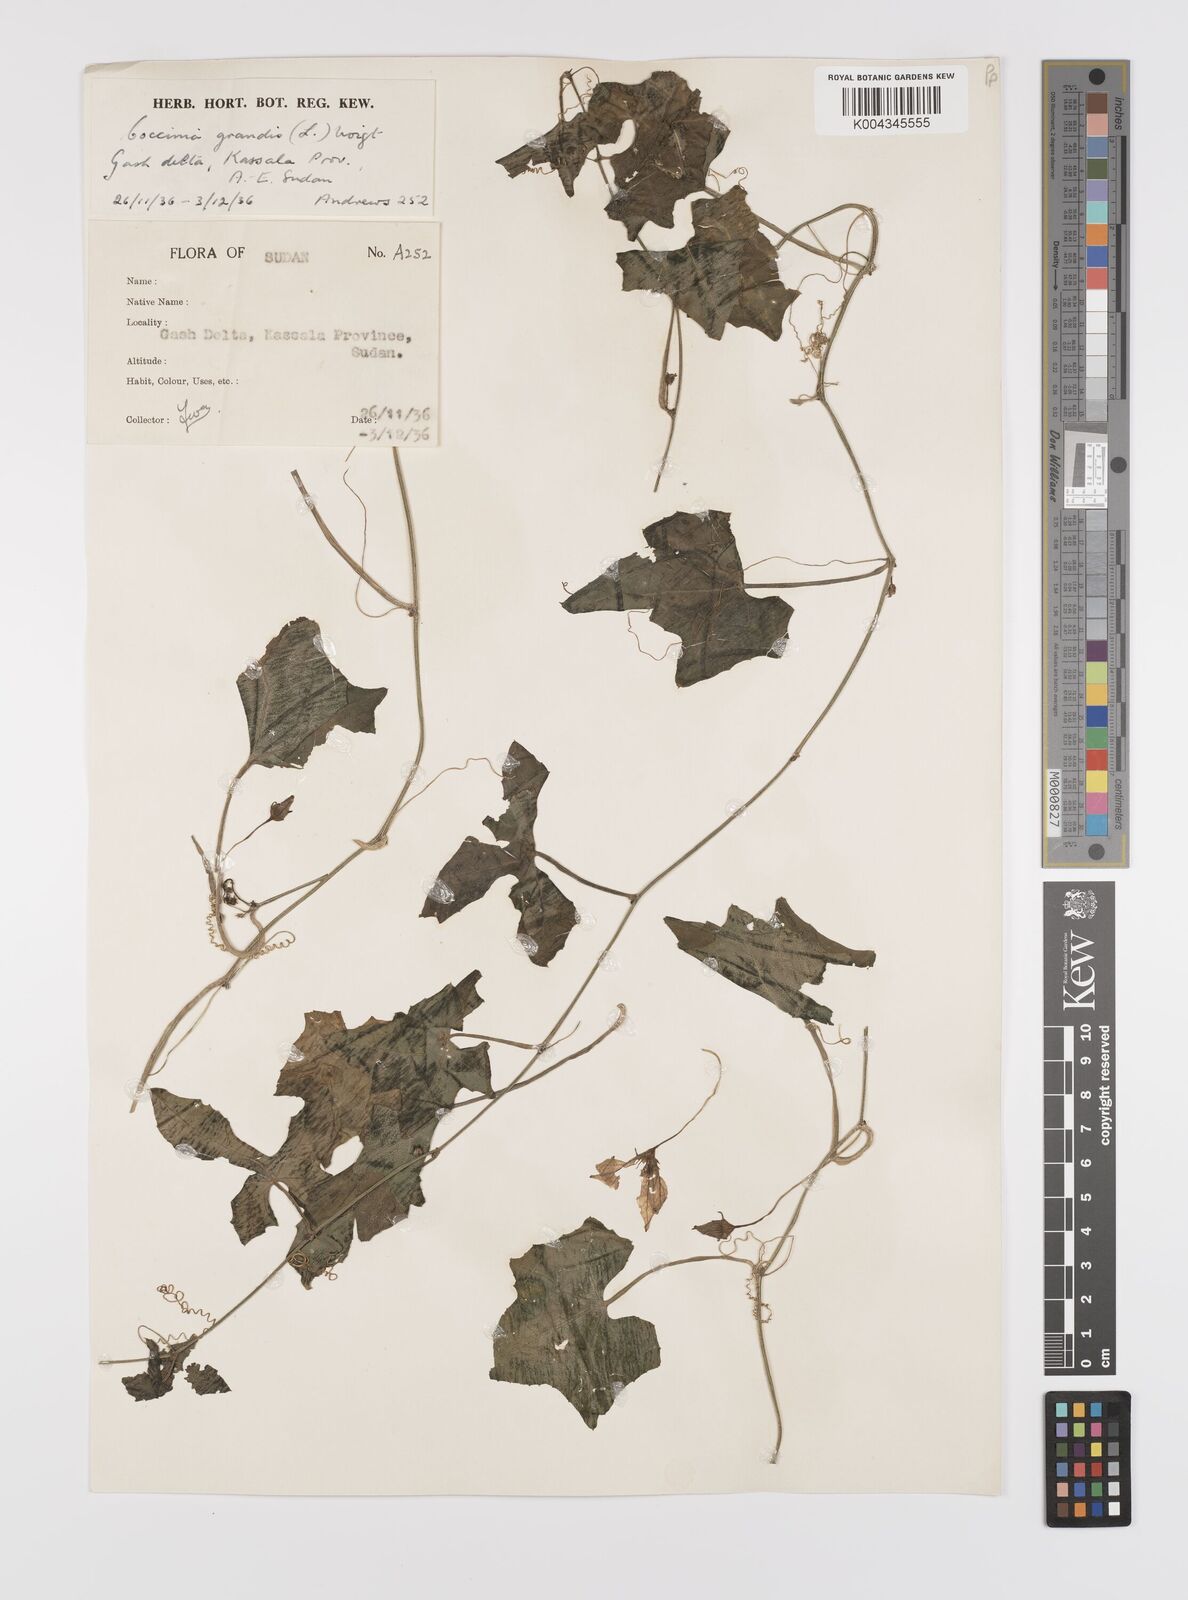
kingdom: Plantae
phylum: Tracheophyta
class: Magnoliopsida
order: Cucurbitales
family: Cucurbitaceae
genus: Coccinia
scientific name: Coccinia grandis
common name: Ivy gourd
